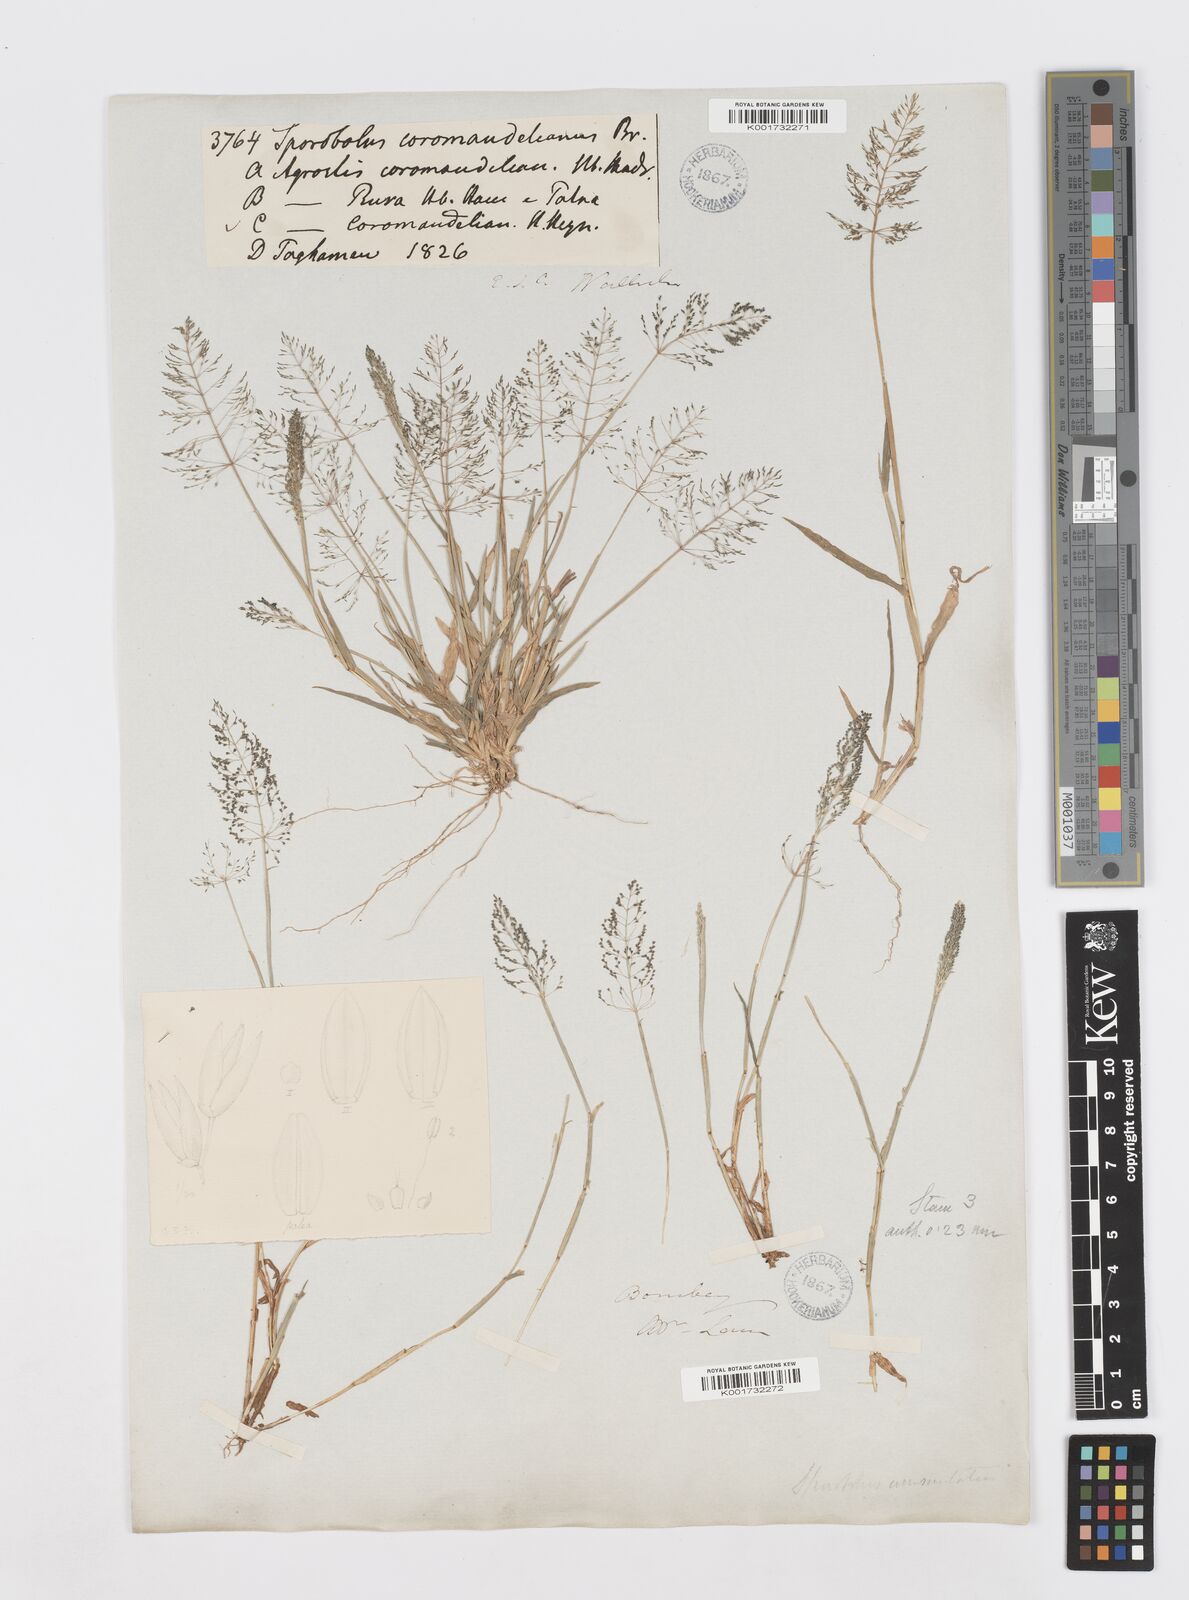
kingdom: Plantae
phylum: Tracheophyta
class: Liliopsida
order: Poales
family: Poaceae
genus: Sporobolus
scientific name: Sporobolus coromandelianus
